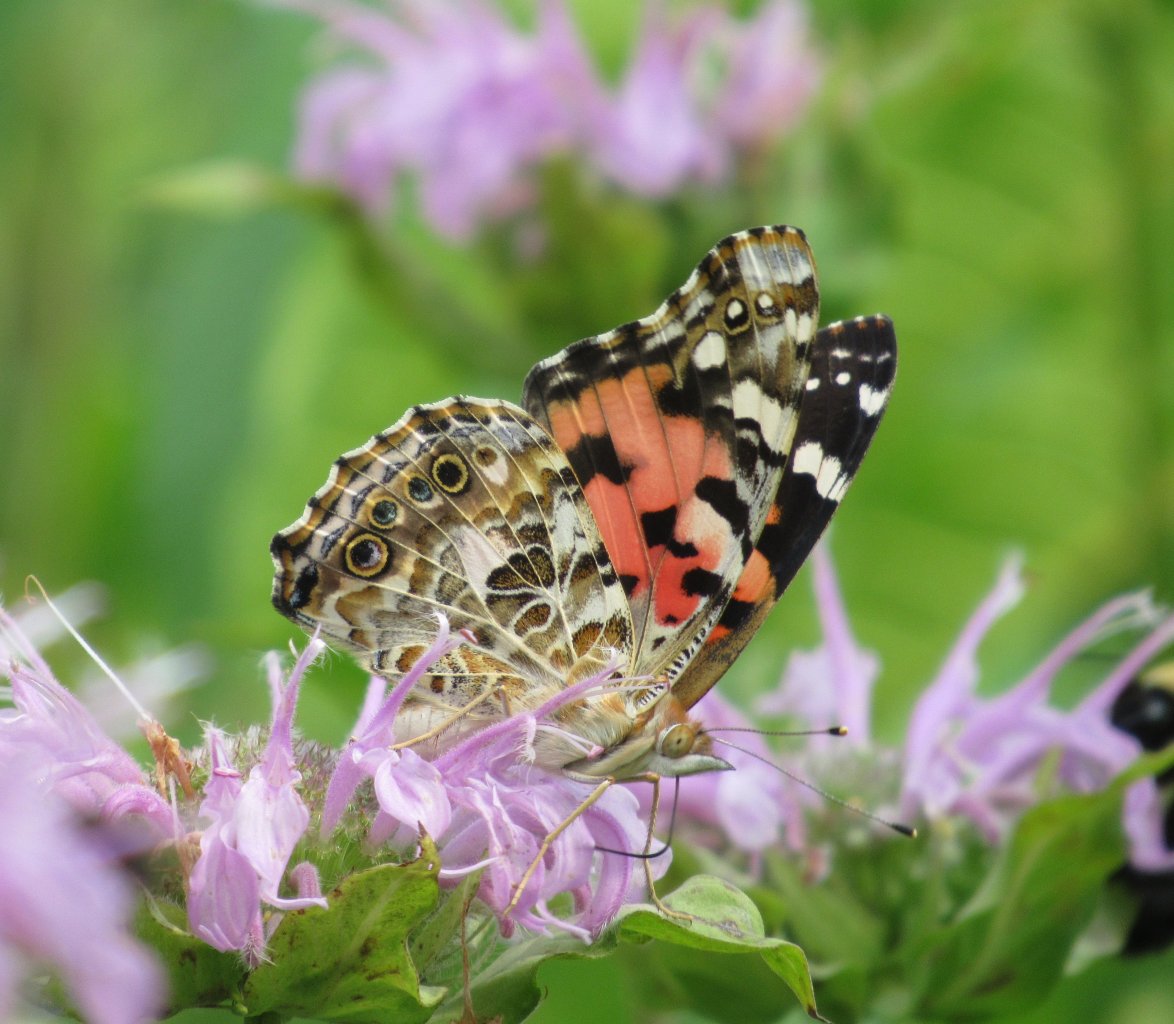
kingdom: Animalia
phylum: Arthropoda
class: Insecta
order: Lepidoptera
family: Nymphalidae
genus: Vanessa
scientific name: Vanessa cardui
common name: Painted Lady
